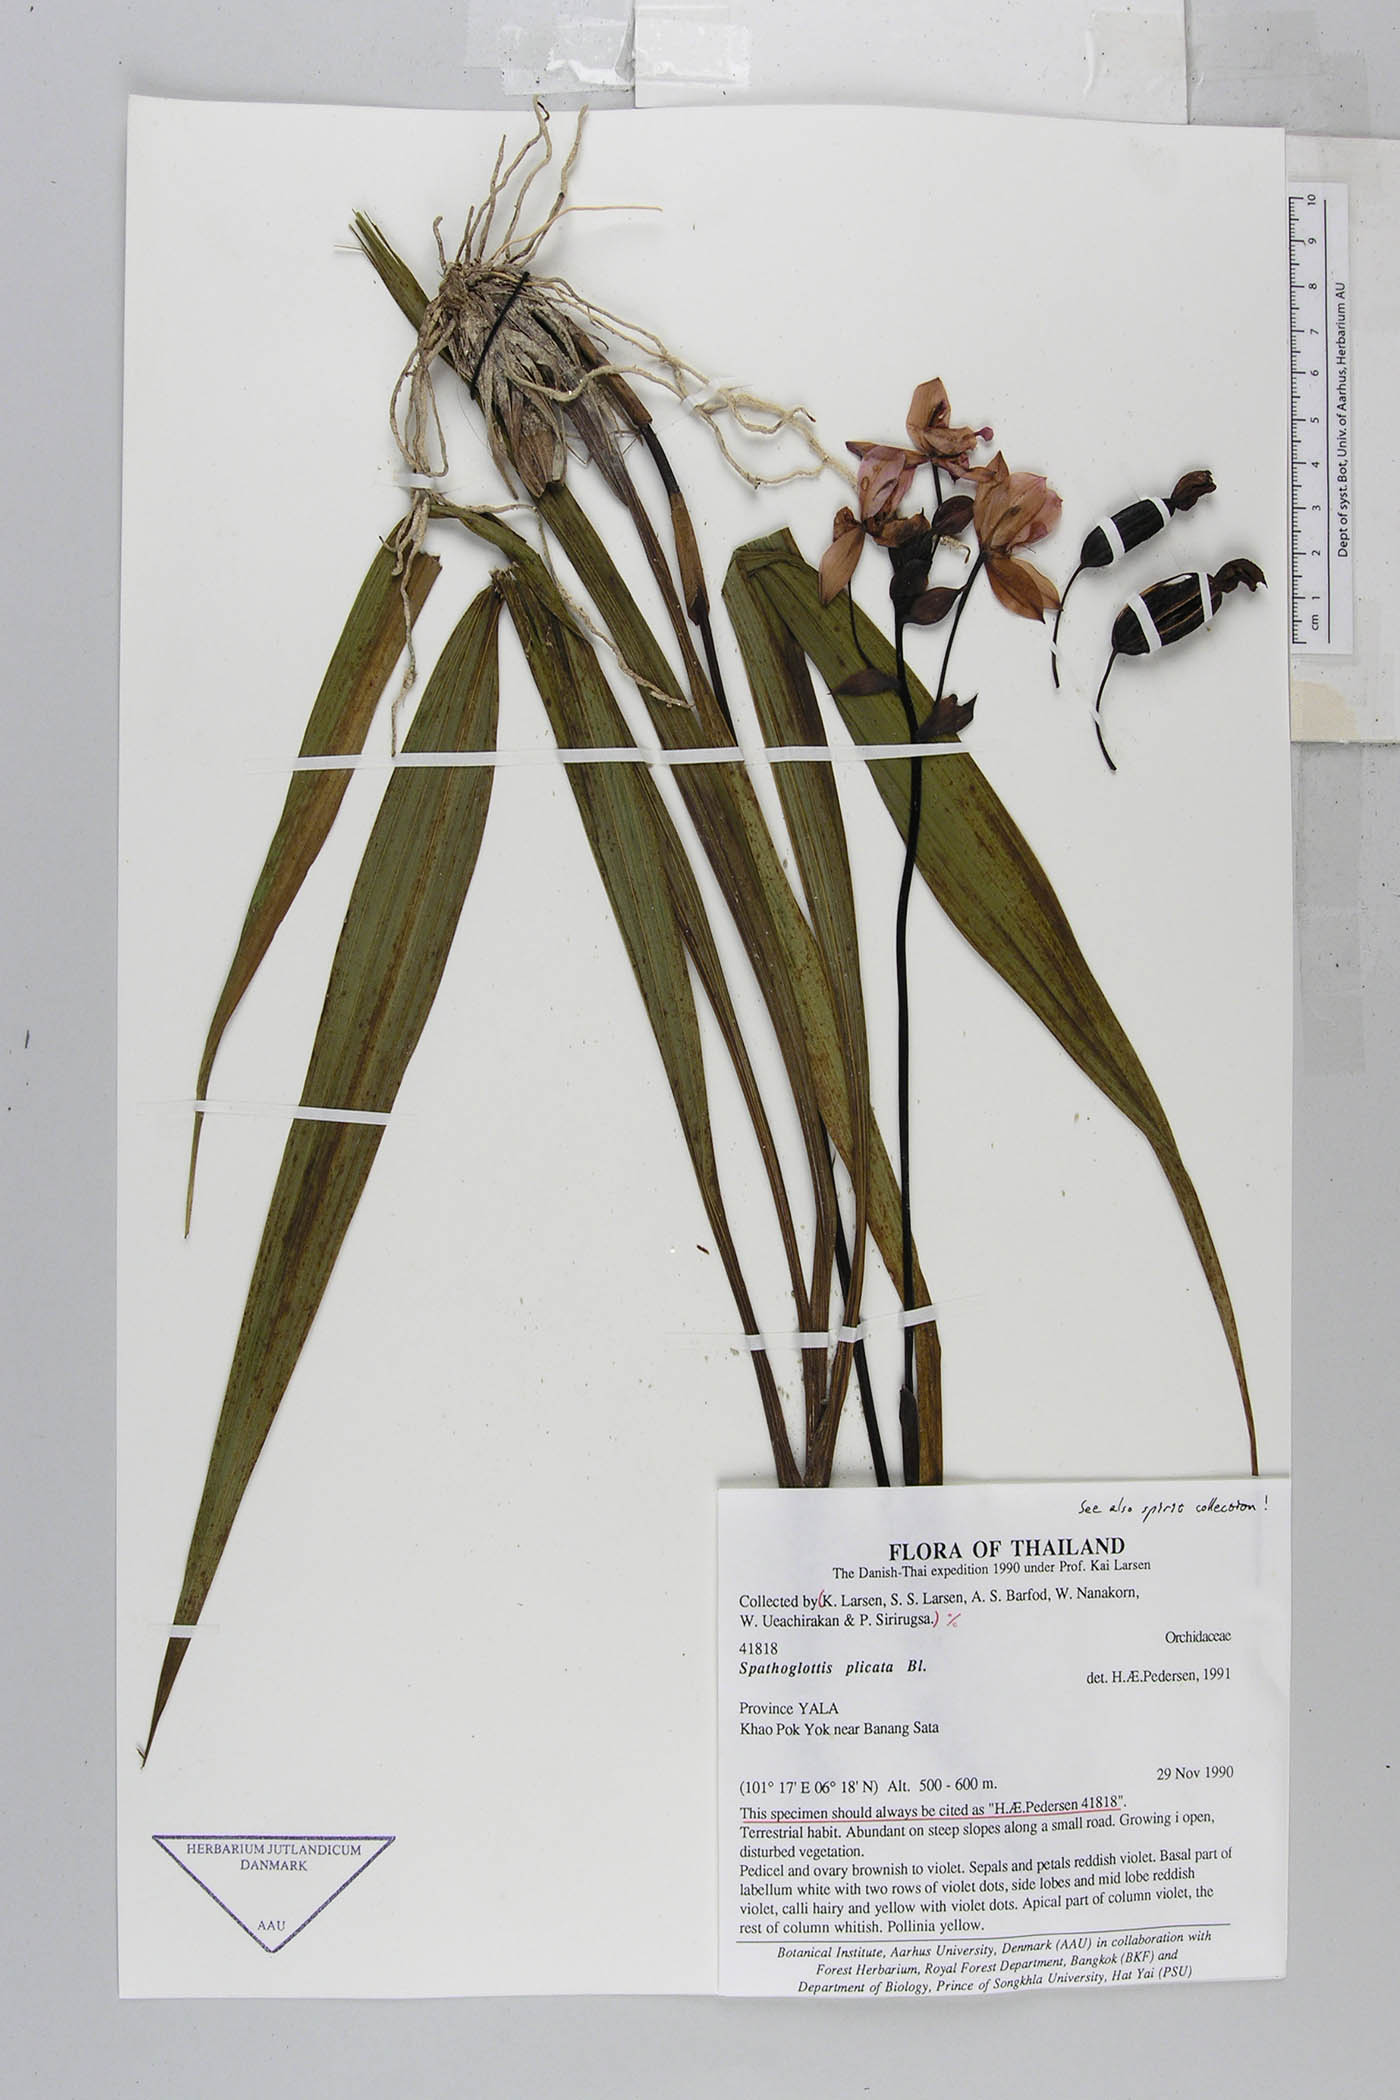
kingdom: Plantae
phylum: Tracheophyta
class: Liliopsida
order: Asparagales
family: Orchidaceae
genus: Spathoglottis
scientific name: Spathoglottis plicata
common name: Philippine ground orchid
